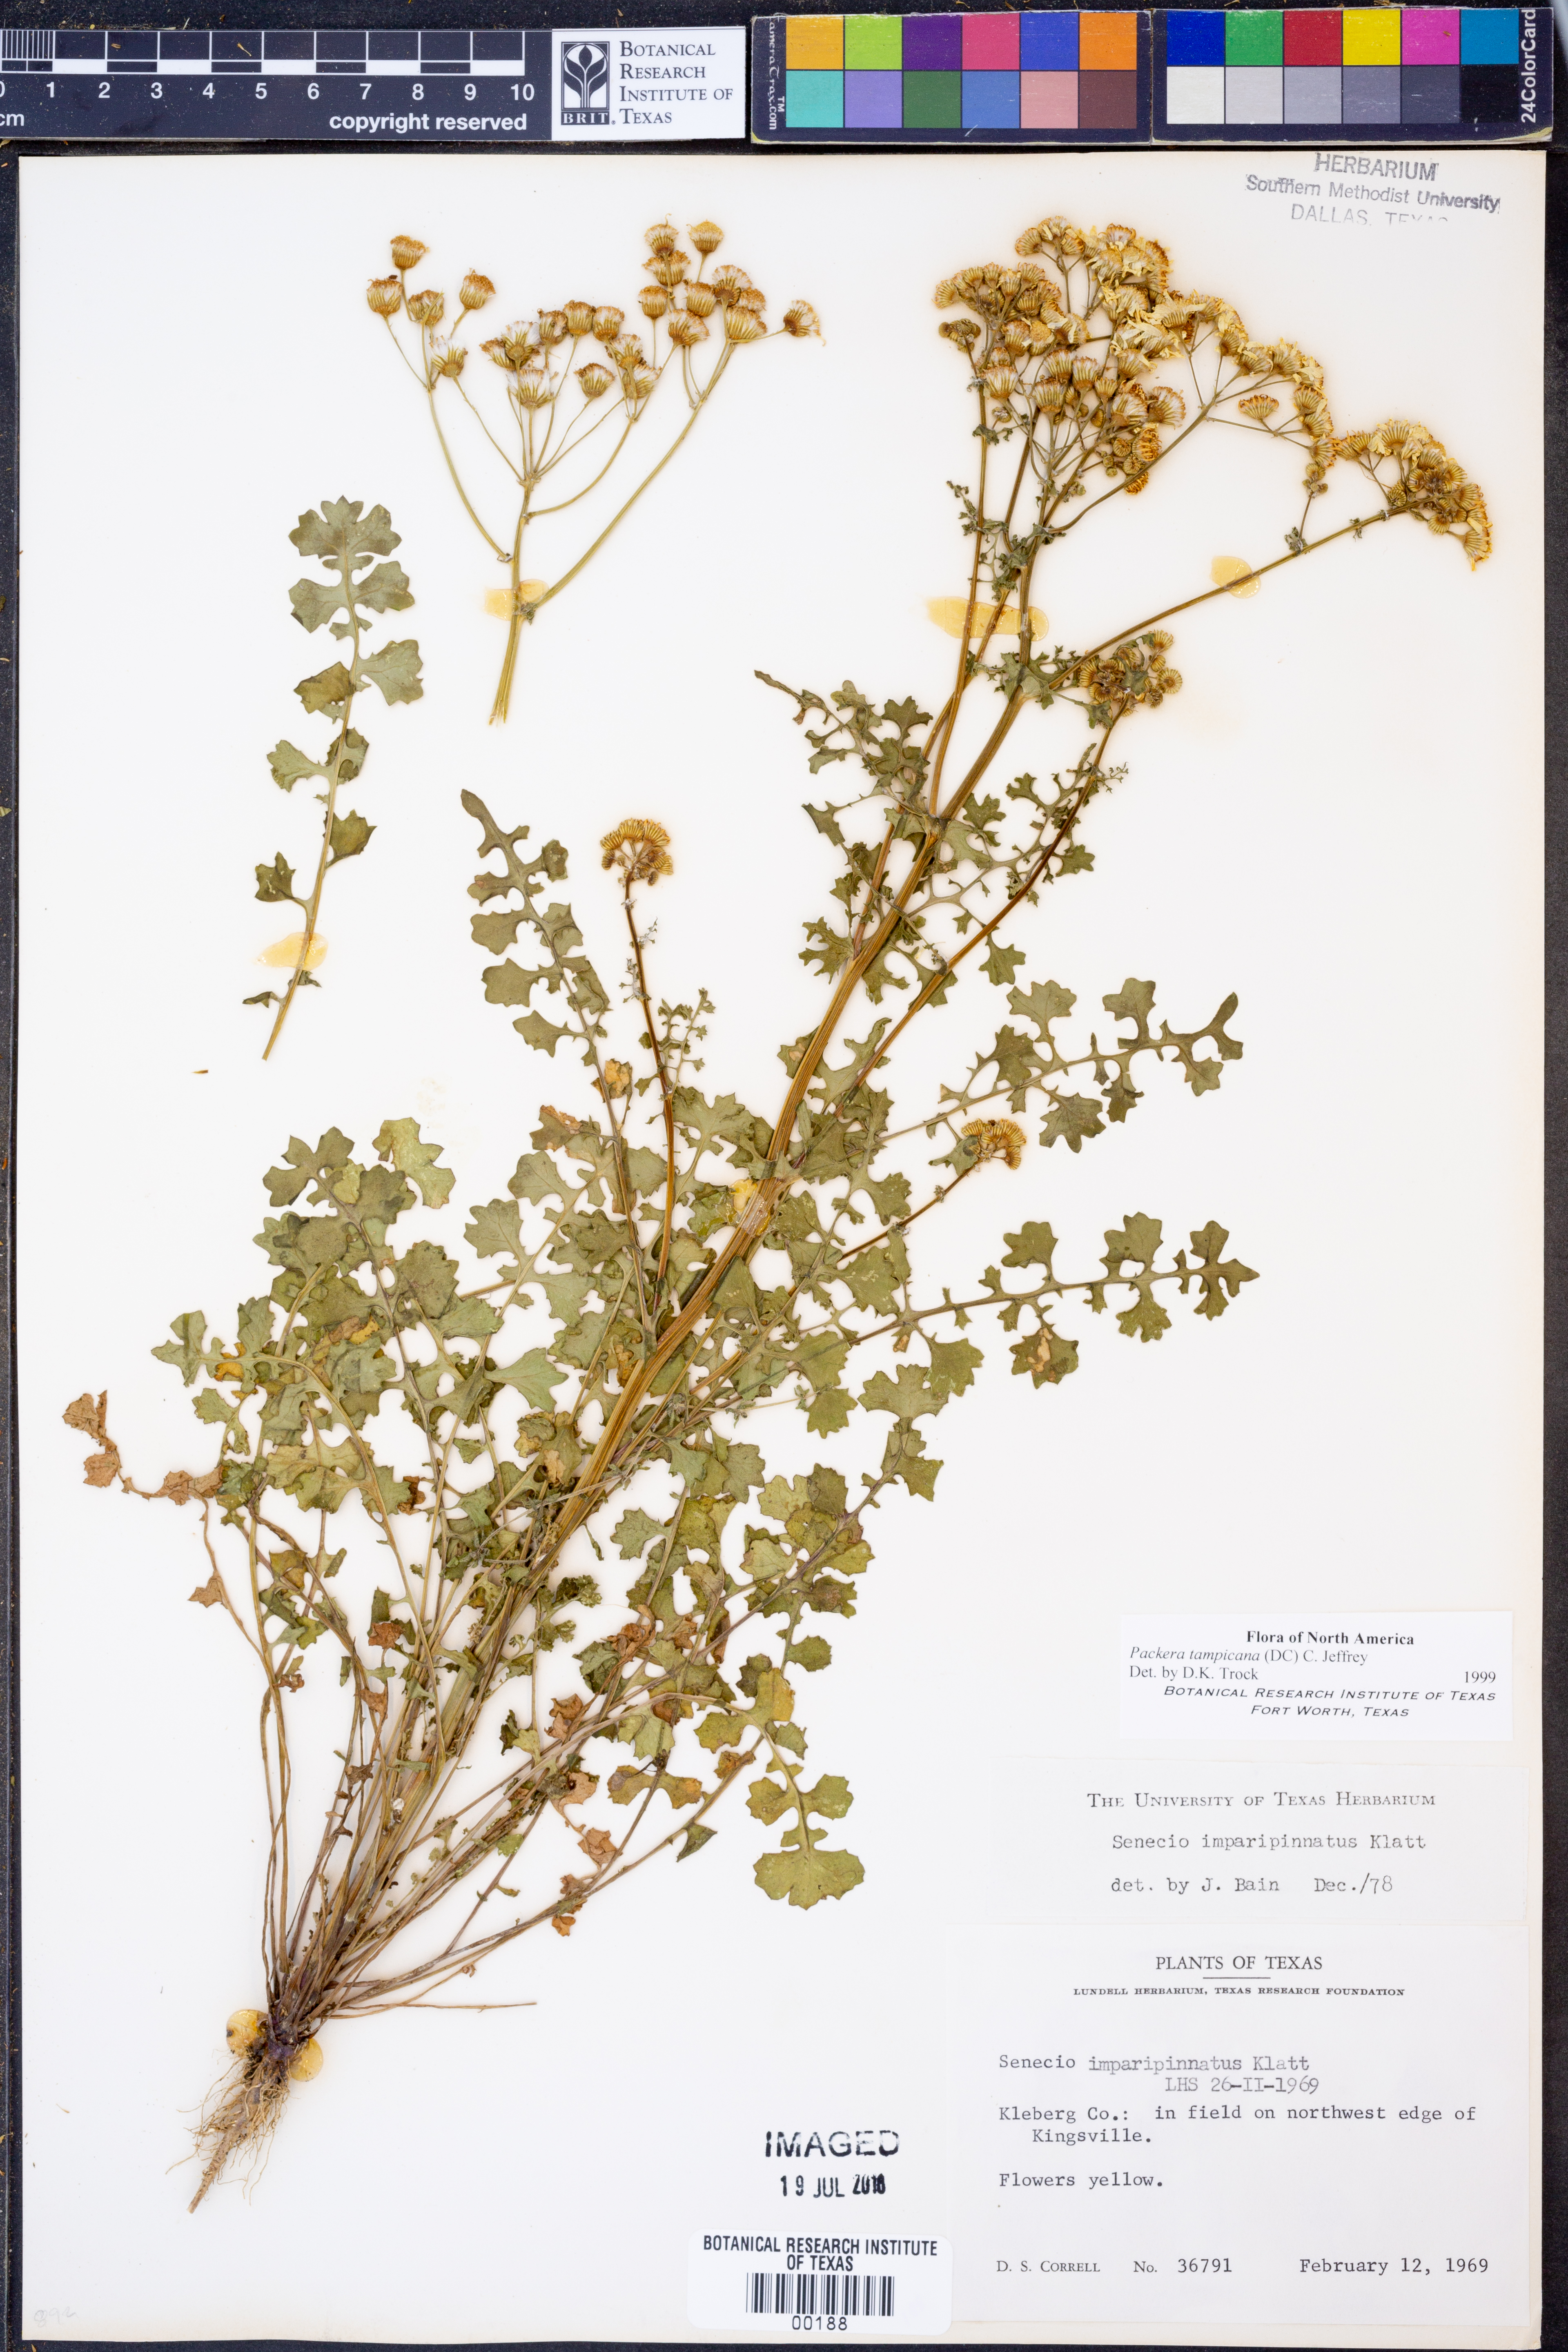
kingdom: Plantae
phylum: Tracheophyta
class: Magnoliopsida
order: Asterales
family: Asteraceae
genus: Packera
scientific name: Packera tampicana
